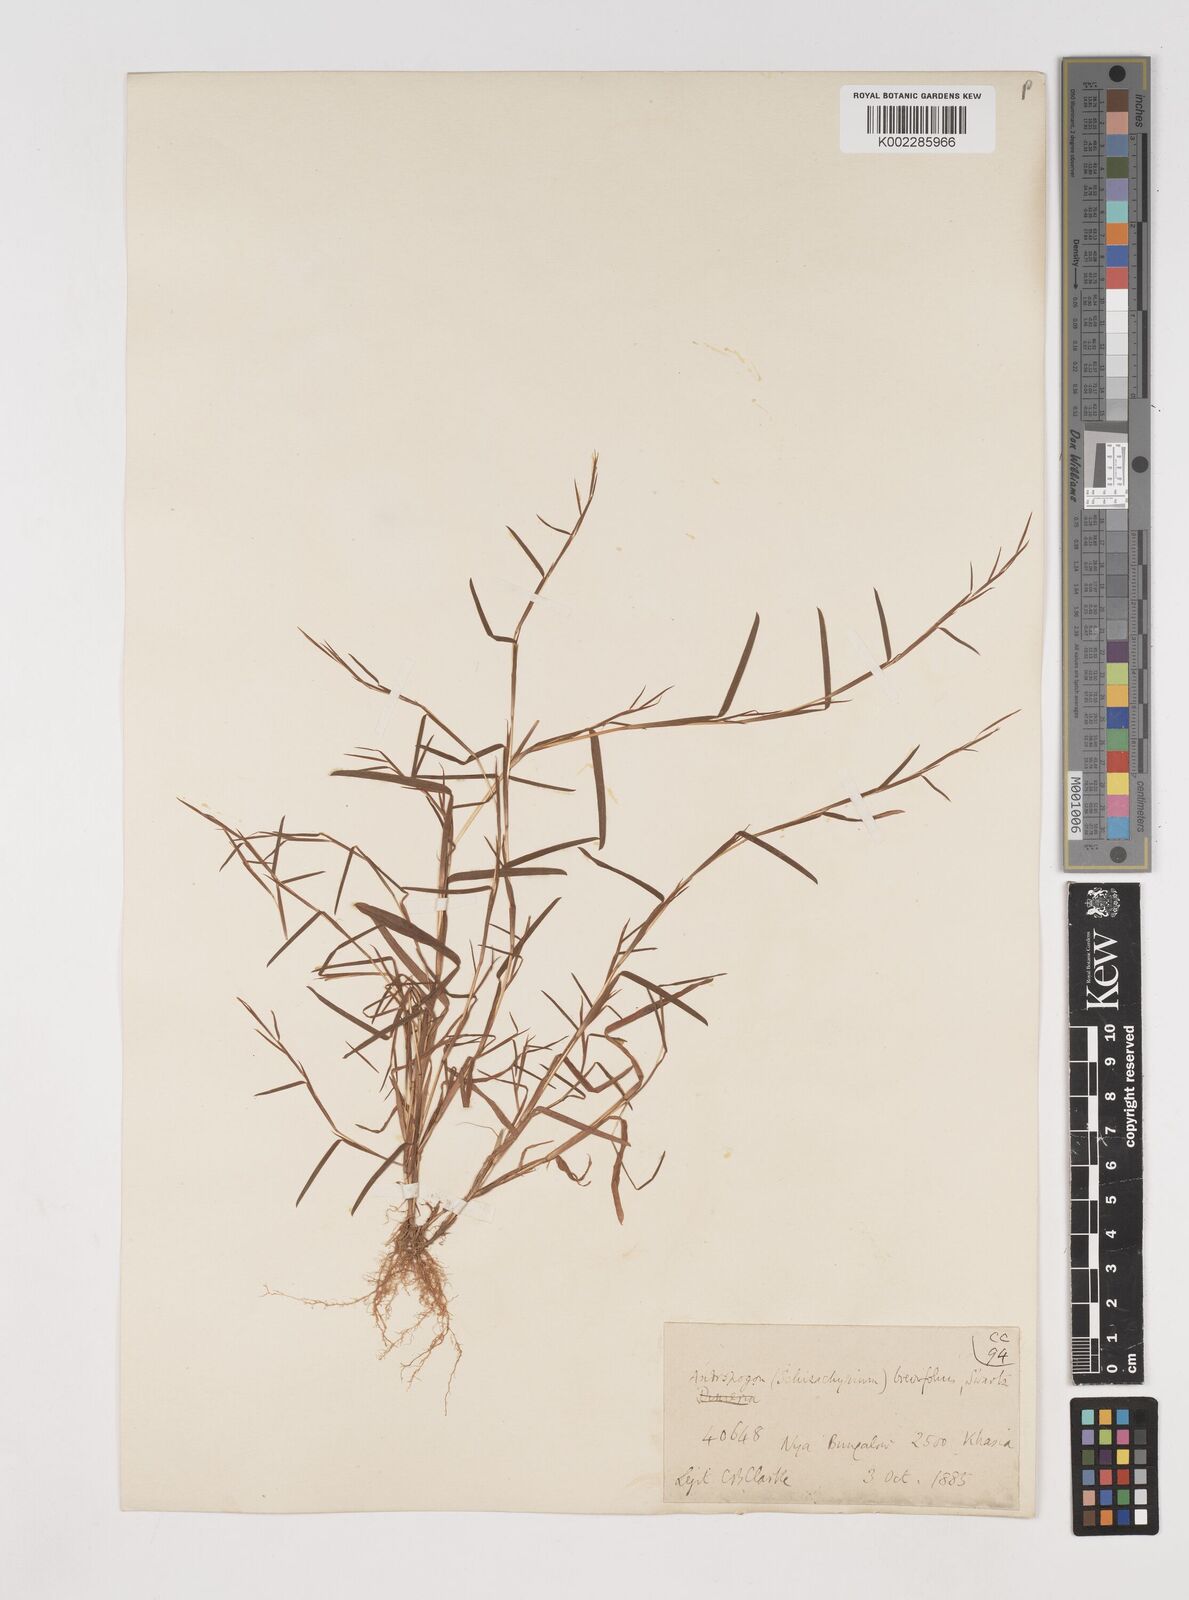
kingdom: Plantae
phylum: Tracheophyta
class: Liliopsida
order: Poales
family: Poaceae
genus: Schizachyrium
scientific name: Schizachyrium brevifolium
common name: Serillo dulce
